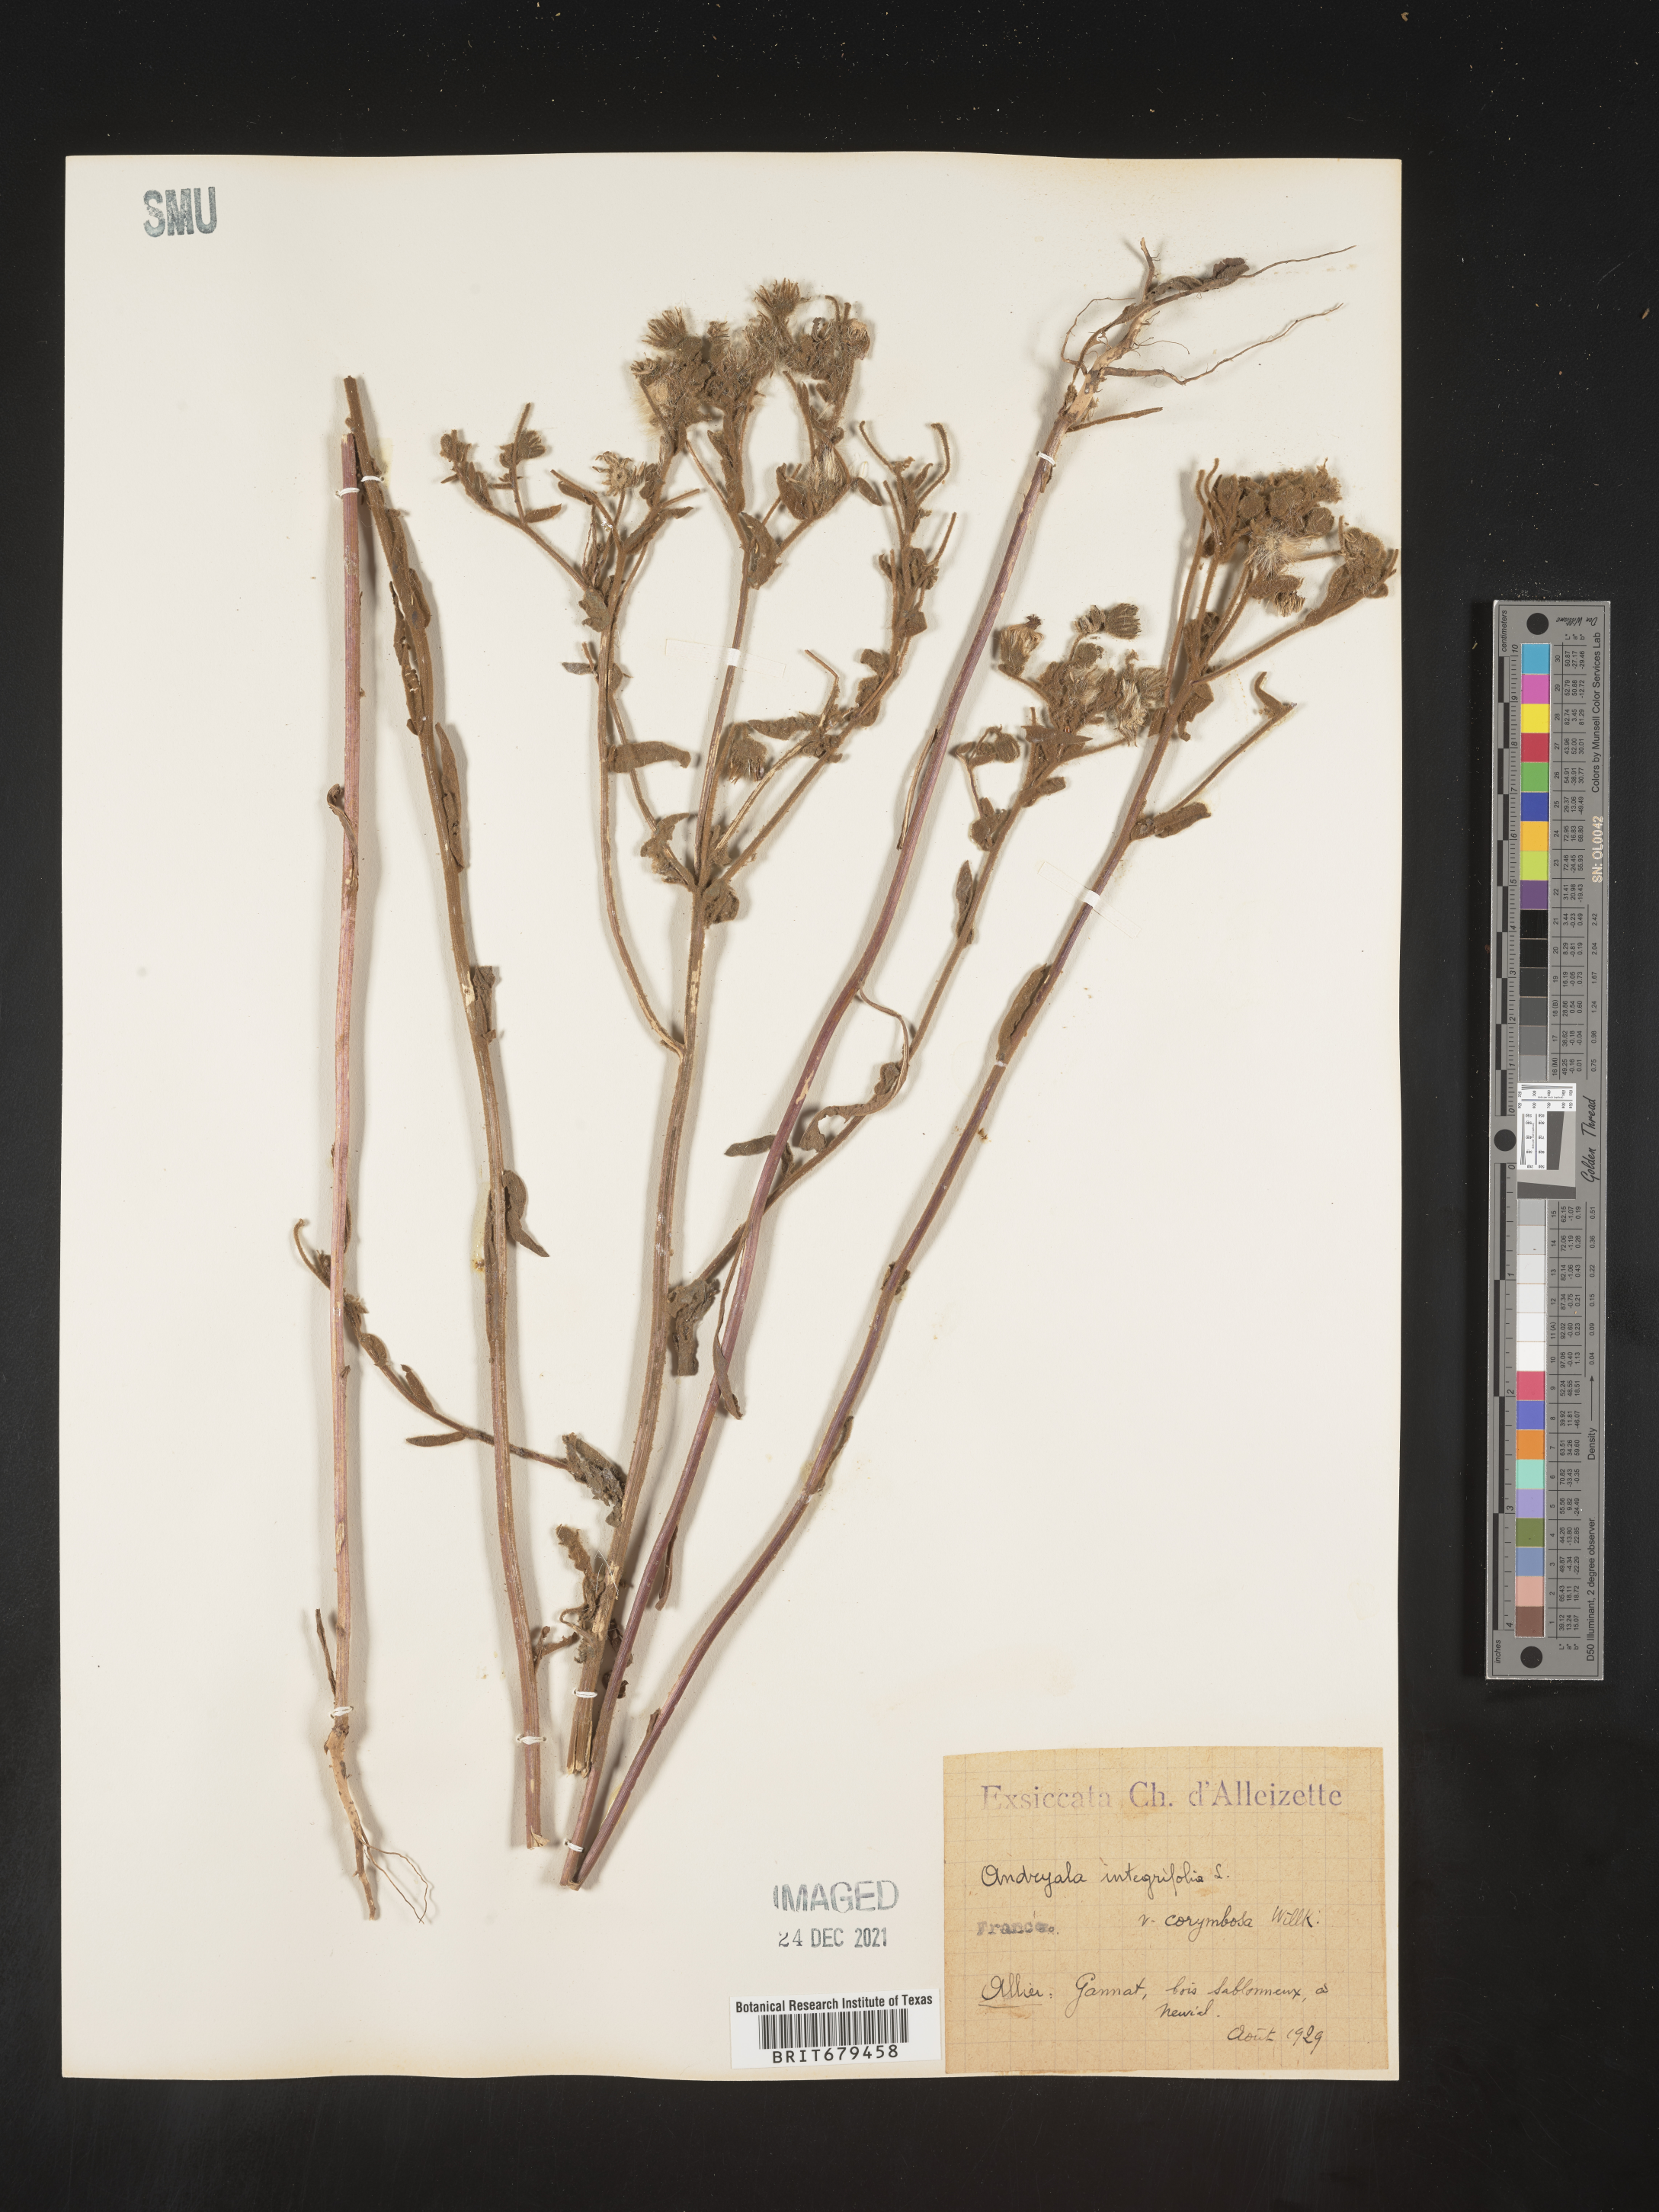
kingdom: Plantae
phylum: Tracheophyta
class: Magnoliopsida
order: Asterales
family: Asteraceae
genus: Andryala
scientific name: Andryala
